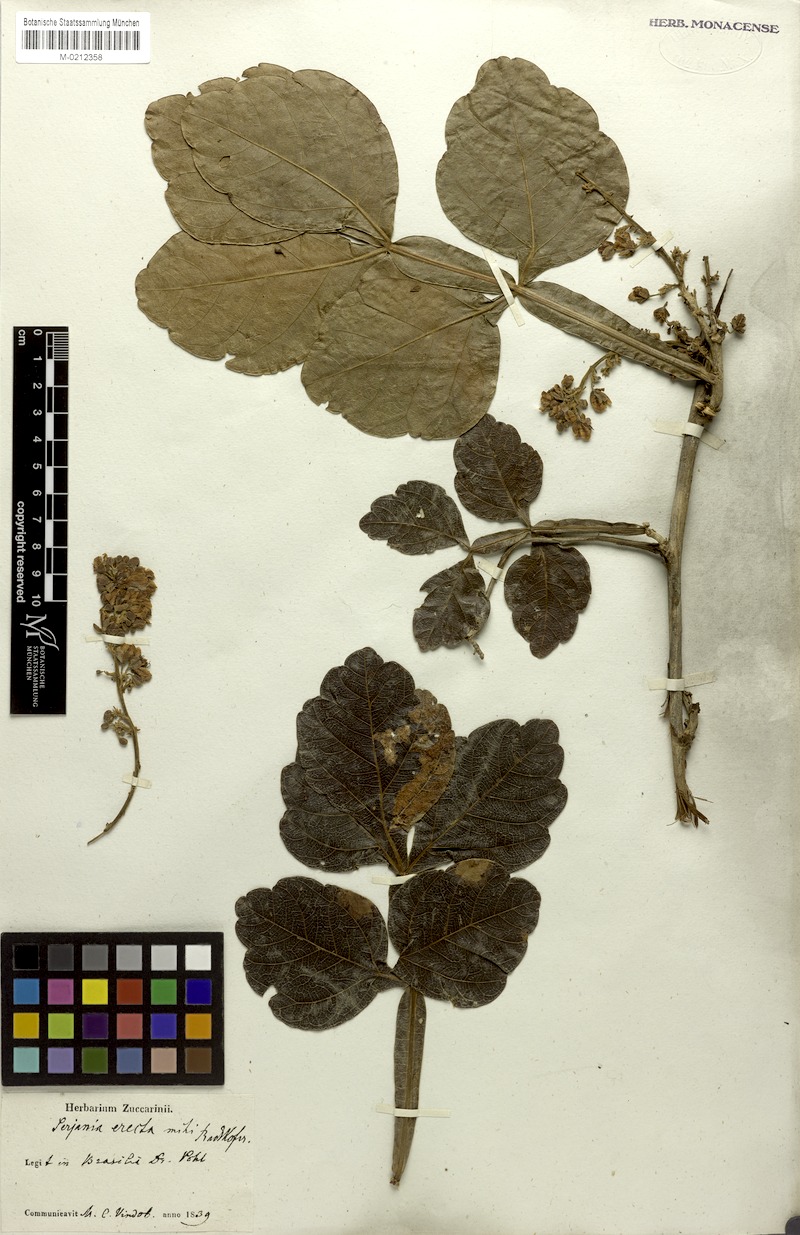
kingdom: Plantae
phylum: Tracheophyta
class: Magnoliopsida
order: Sapindales
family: Sapindaceae
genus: Serjania
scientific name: Serjania erecta
